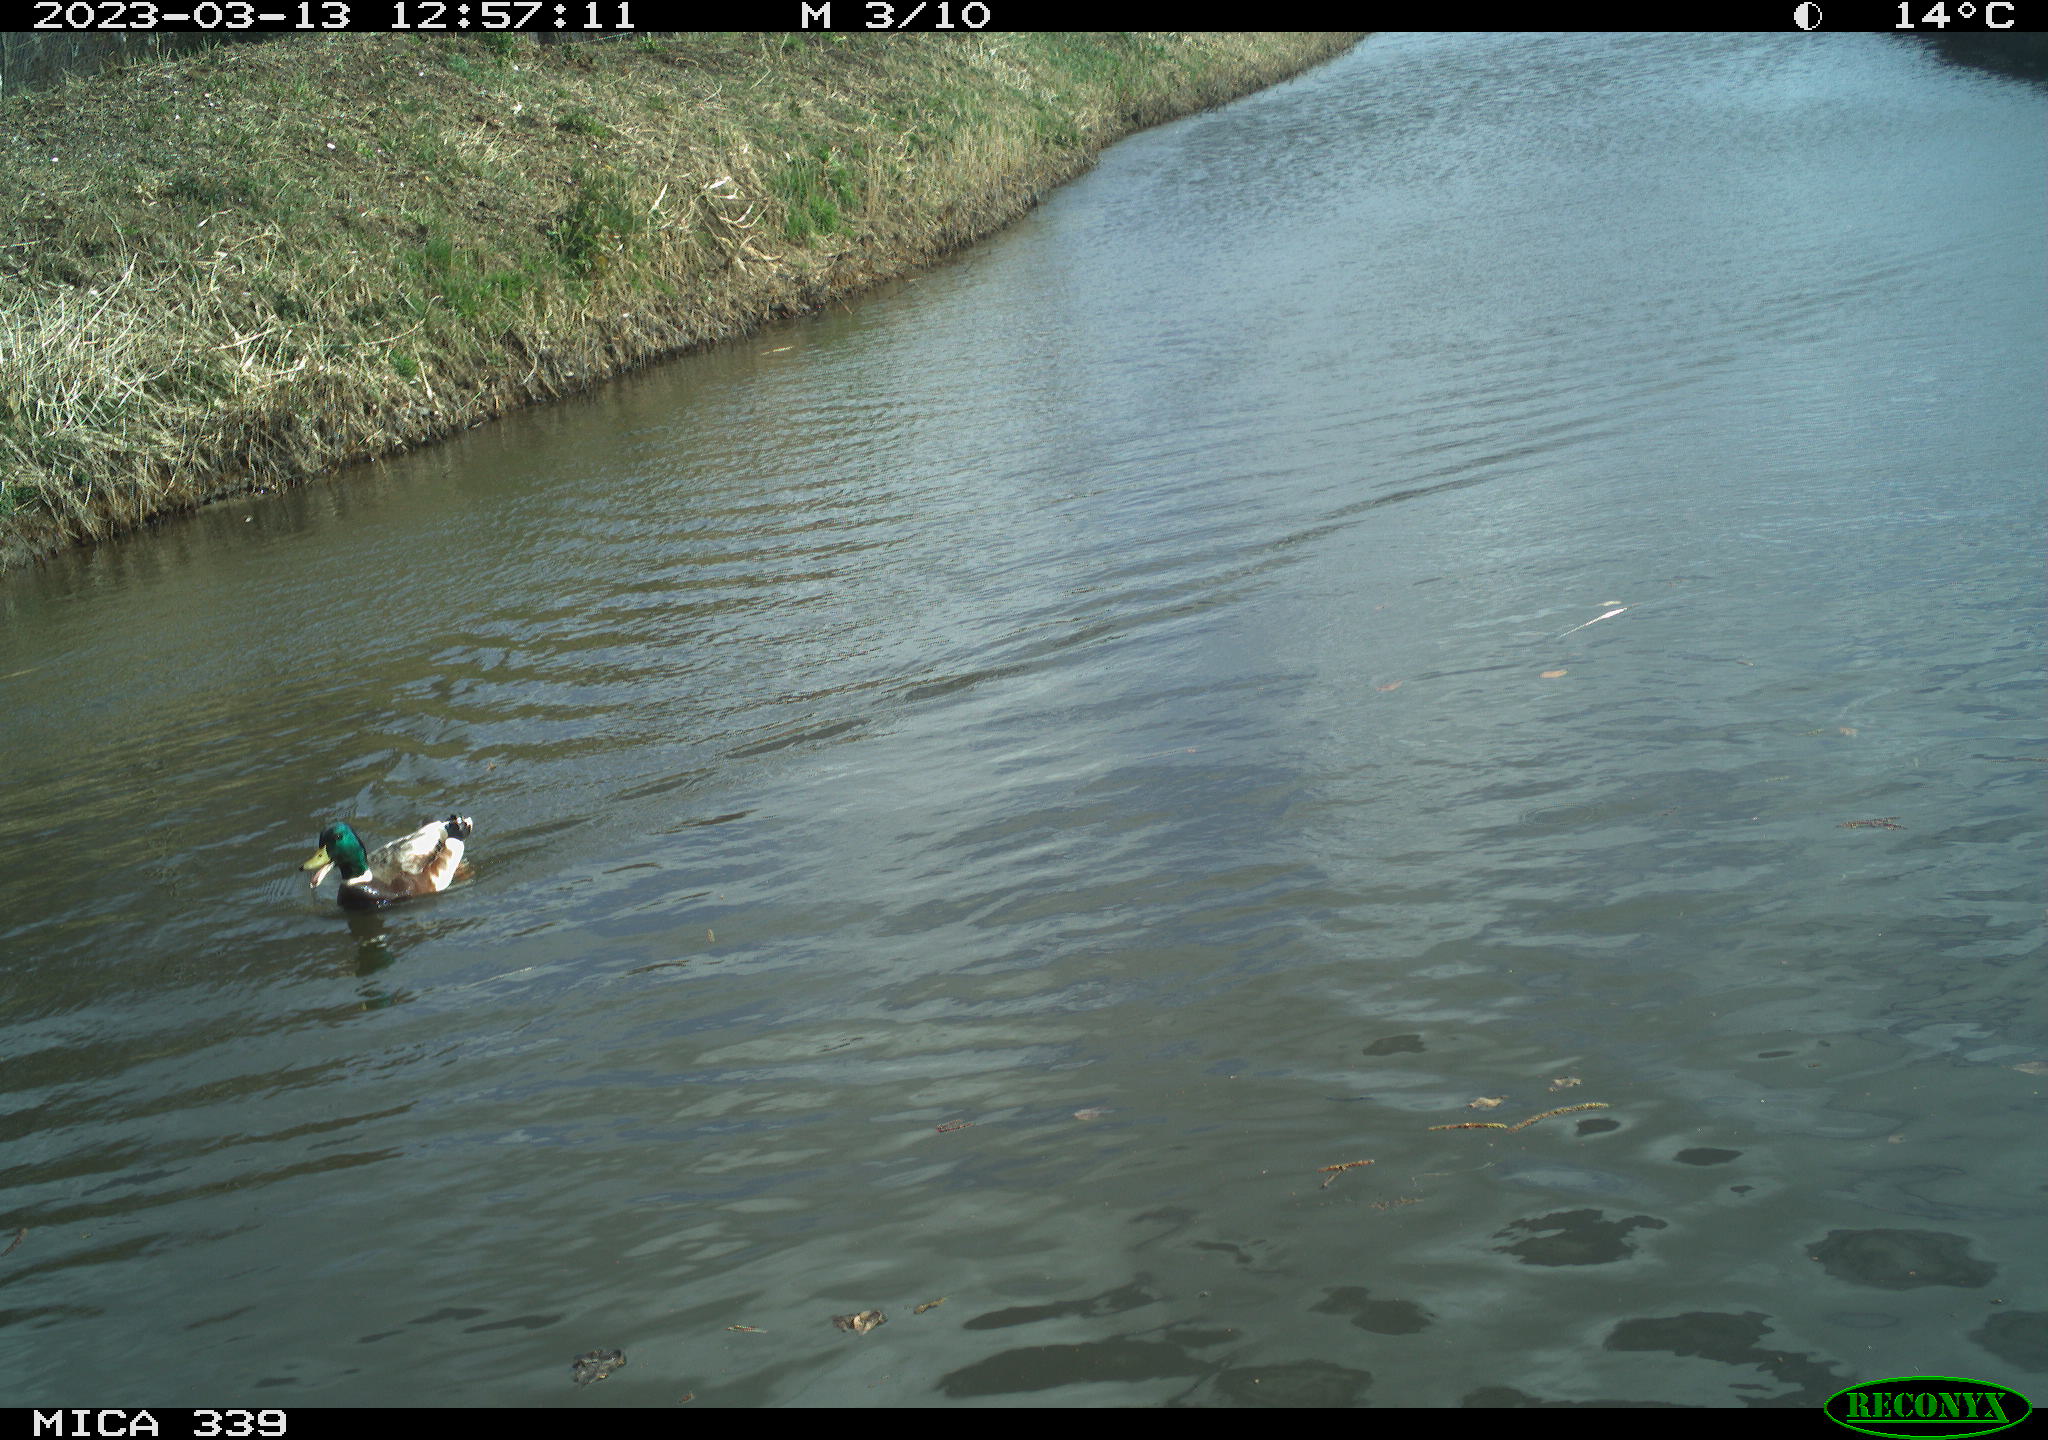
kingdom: Animalia
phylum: Chordata
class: Aves
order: Anseriformes
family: Anatidae
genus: Anas
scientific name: Anas
